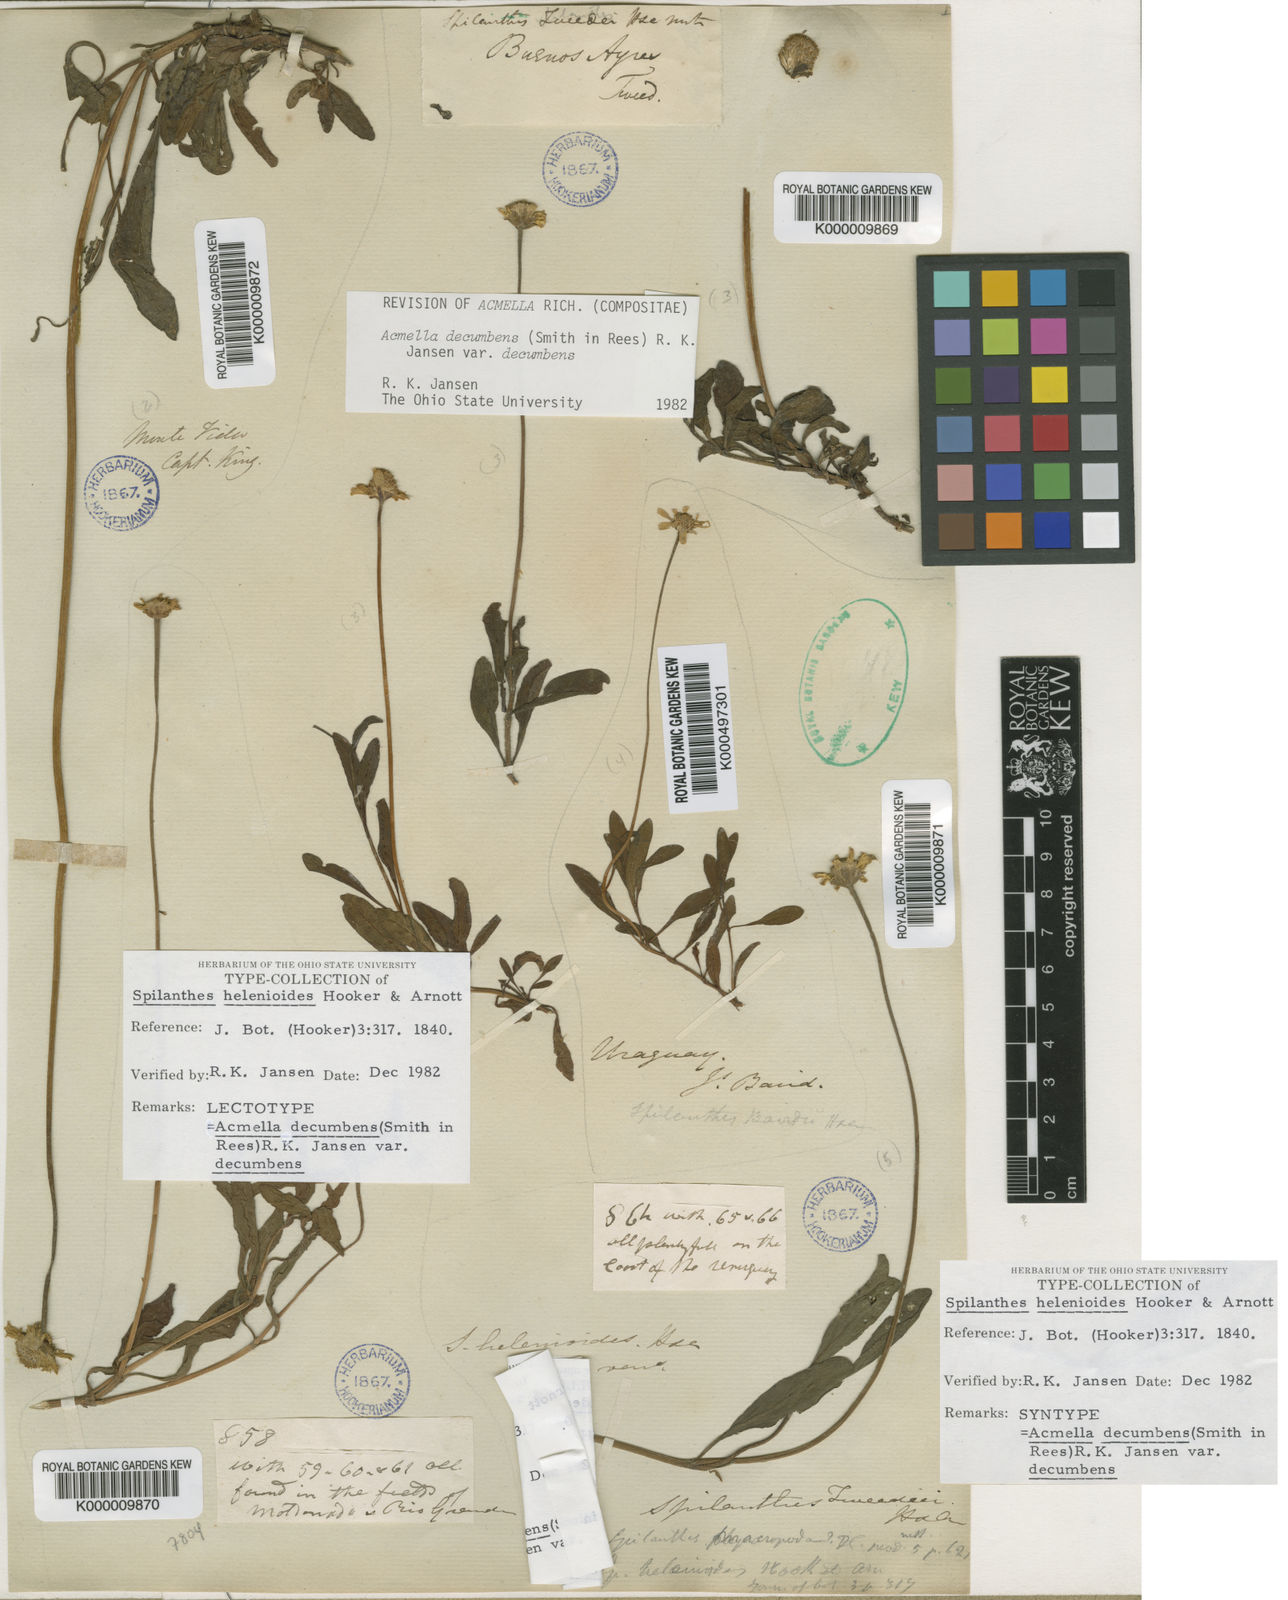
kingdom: Plantae
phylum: Tracheophyta
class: Magnoliopsida
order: Asterales
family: Asteraceae
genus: Acmella
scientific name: Acmella decumbens
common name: Creeping spotflower
